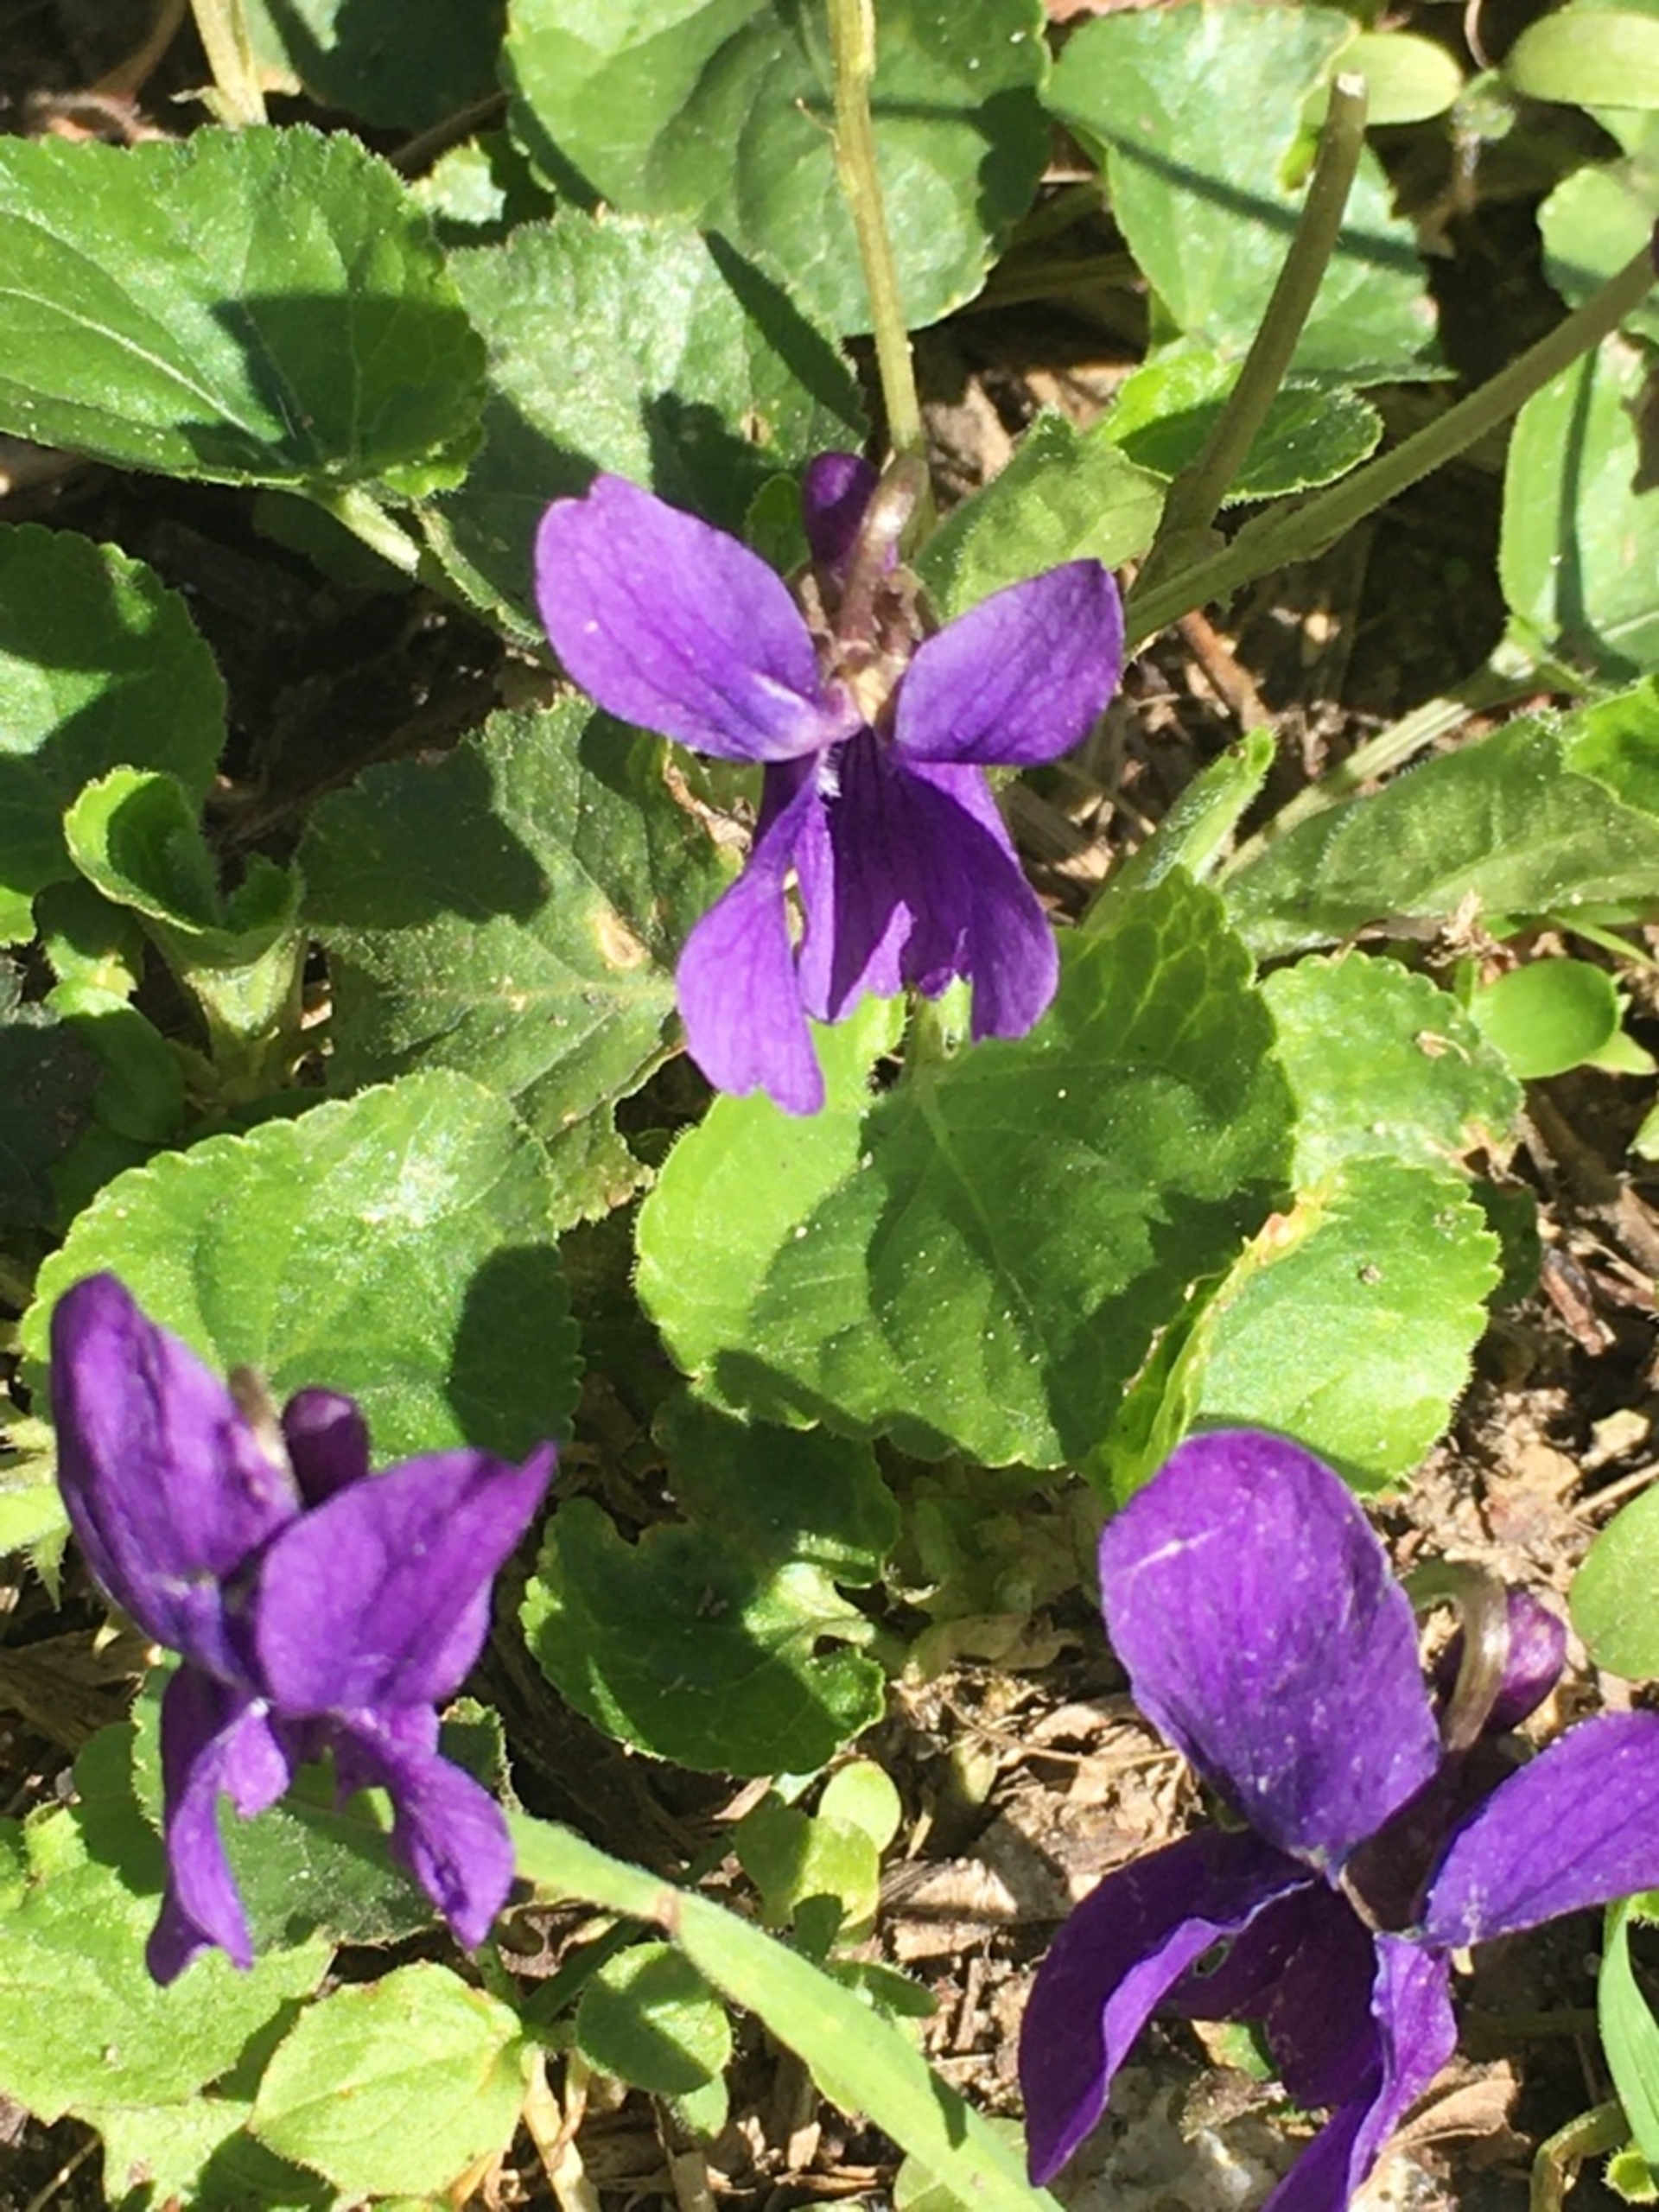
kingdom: Plantae
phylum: Tracheophyta
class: Magnoliopsida
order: Malpighiales
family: Violaceae
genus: Viola
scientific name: Viola odorata
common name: Marts-viol
